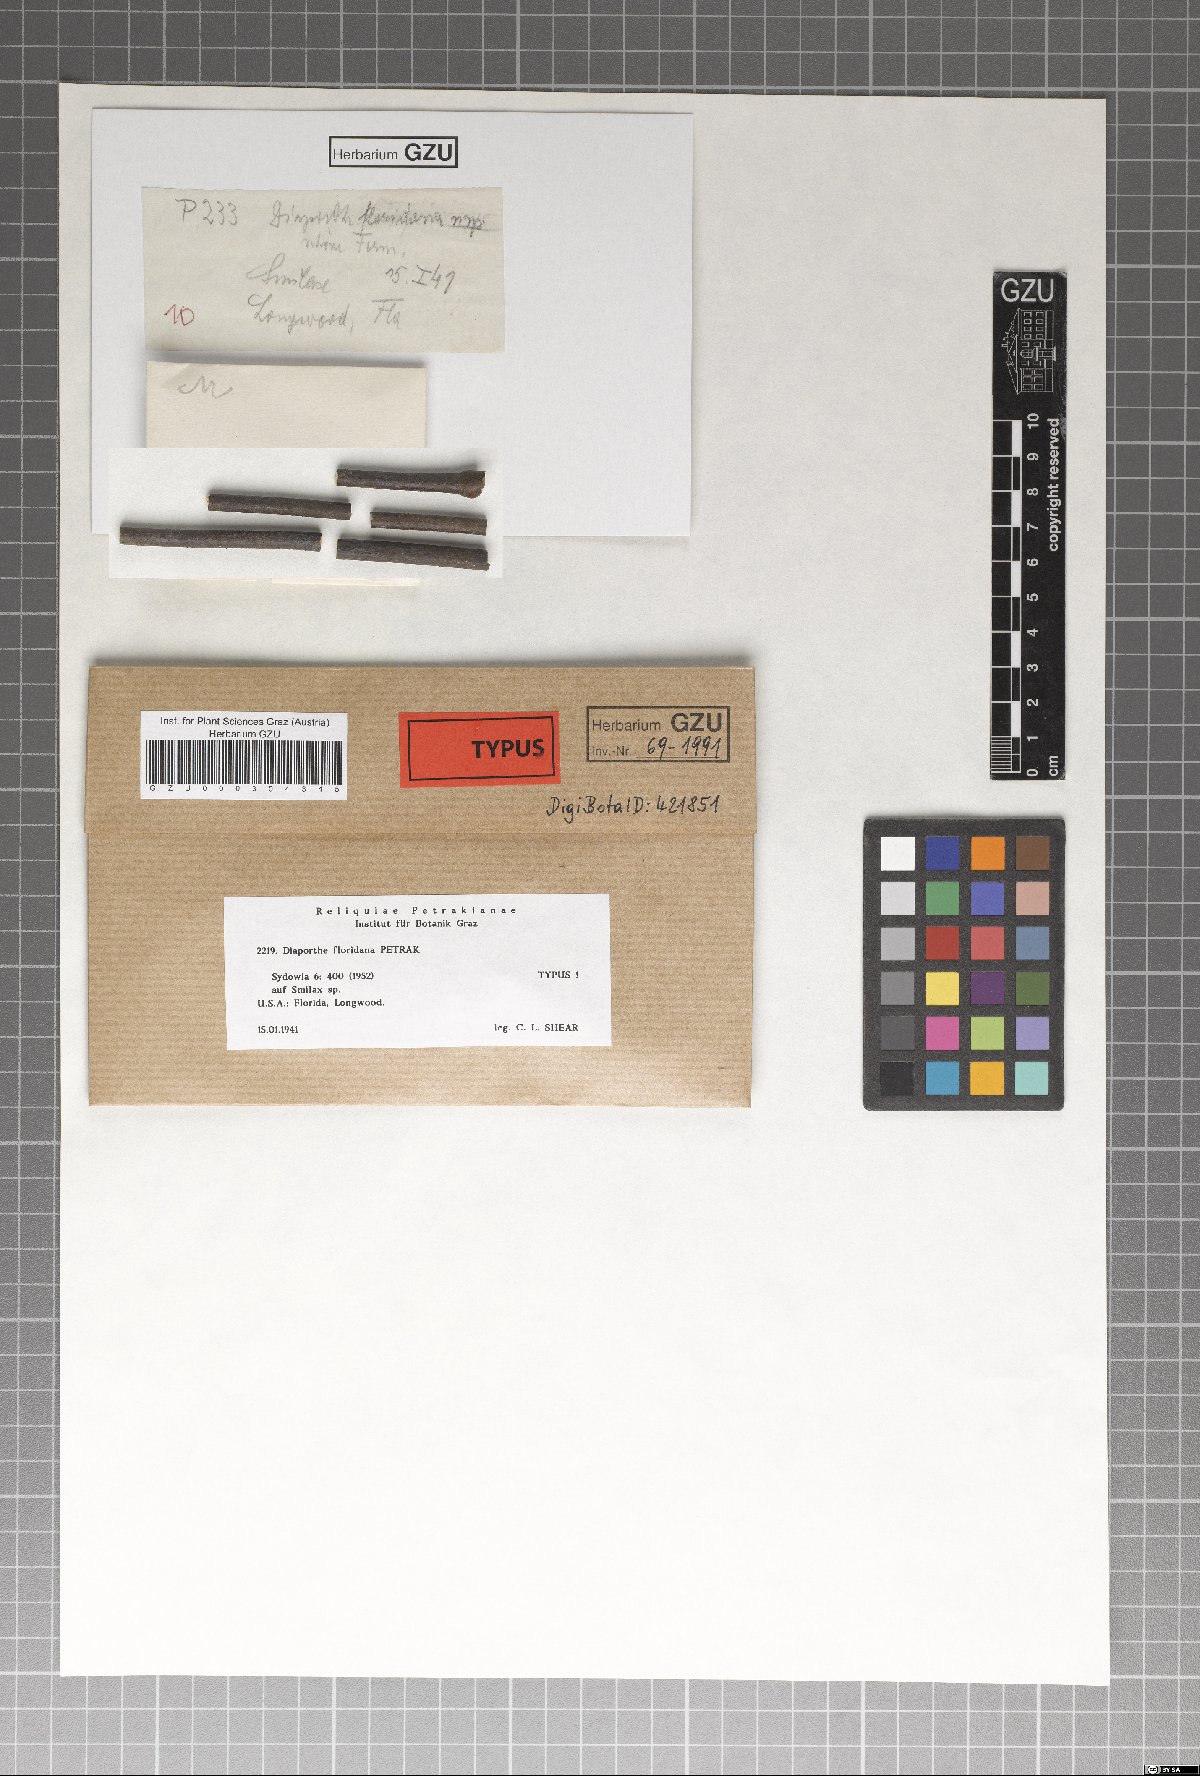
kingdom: Fungi
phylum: Ascomycota
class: Sordariomycetes
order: Diaporthales
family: Diaporthaceae
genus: Diaporthe
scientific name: Diaporthe floridana
